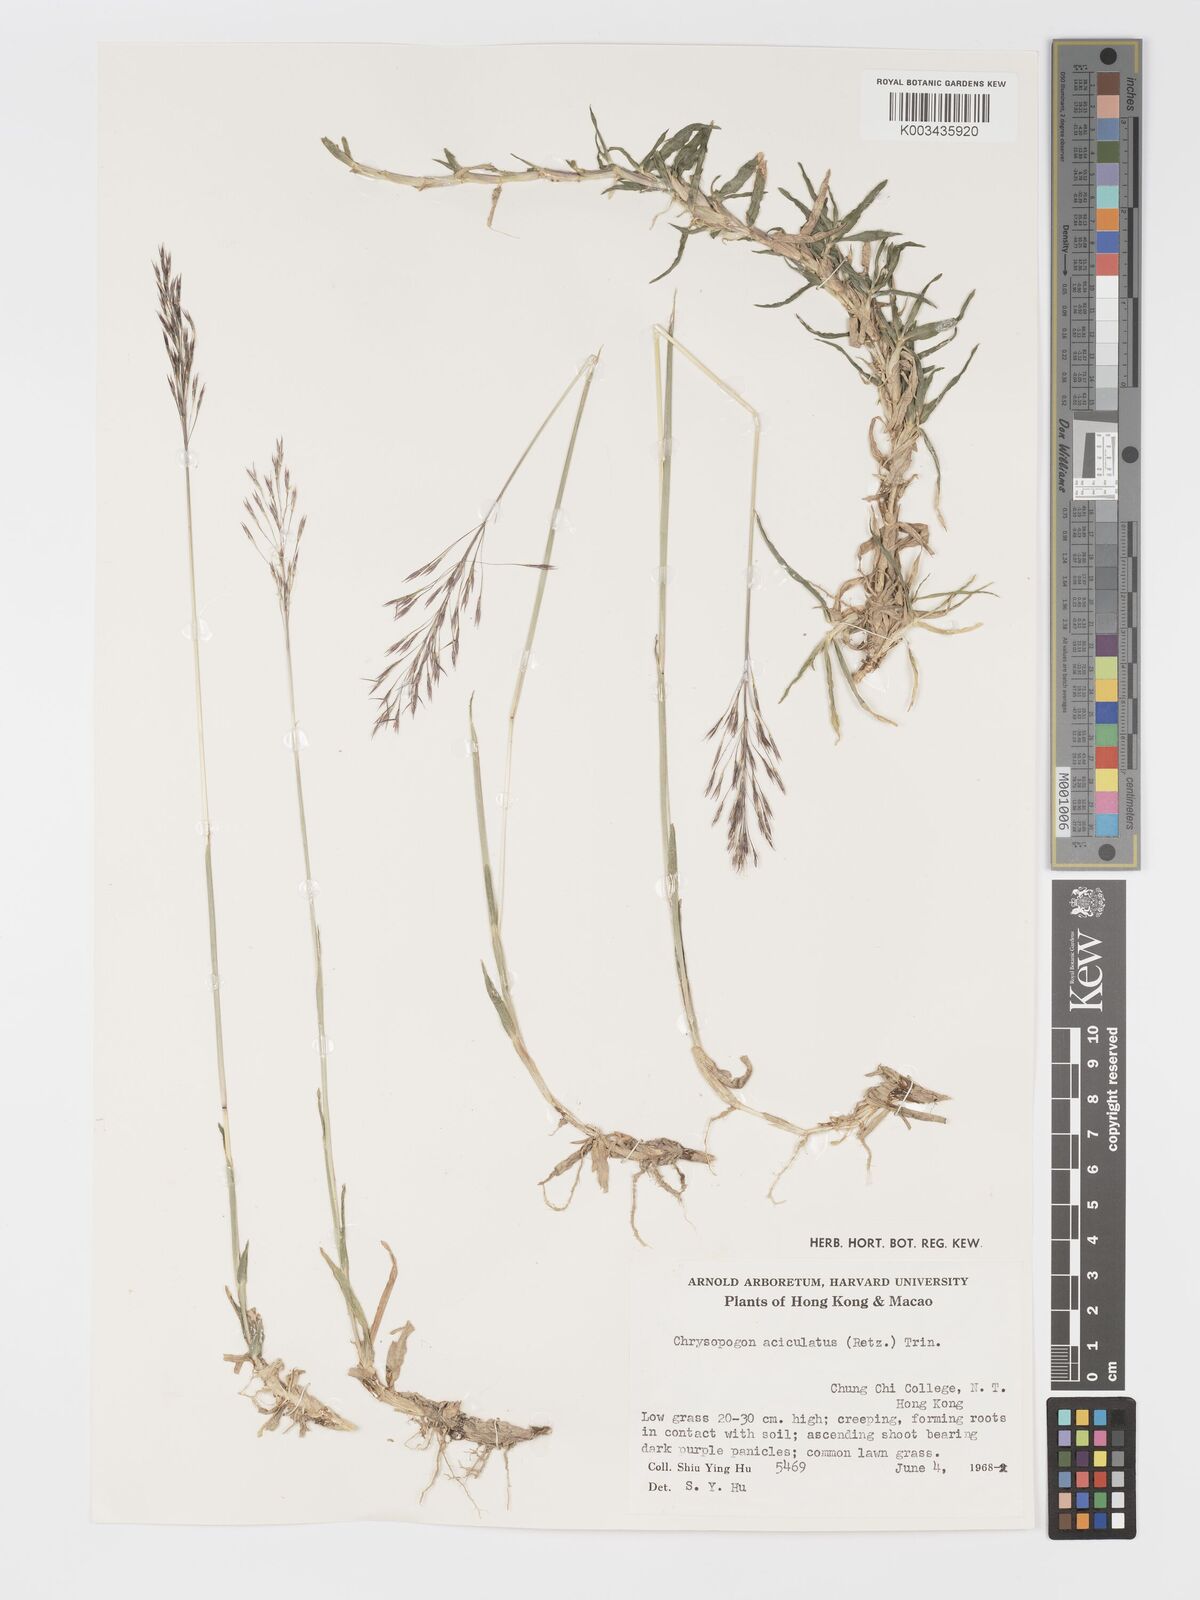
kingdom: Plantae
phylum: Tracheophyta
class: Liliopsida
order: Poales
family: Poaceae
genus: Chrysopogon
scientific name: Chrysopogon aciculatus
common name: Pilipiliula
